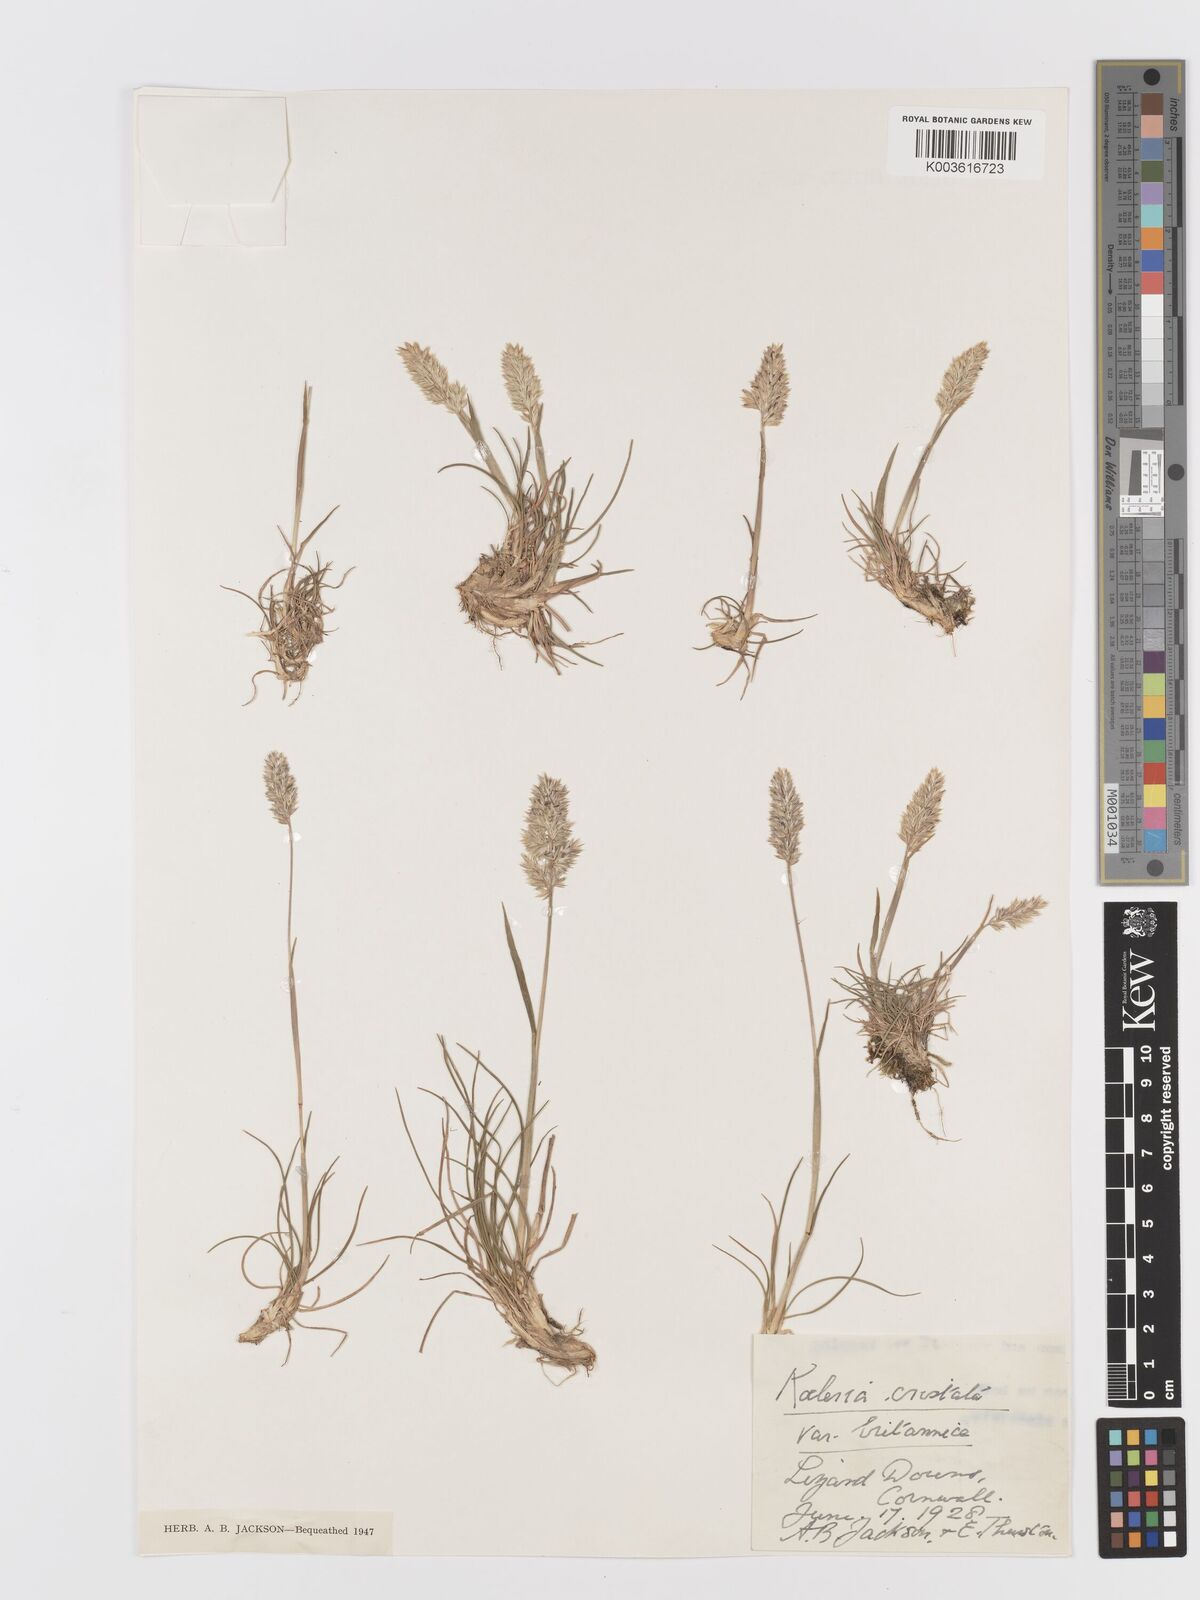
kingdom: Plantae
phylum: Tracheophyta
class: Liliopsida
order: Poales
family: Poaceae
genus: Koeleria
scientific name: Koeleria
